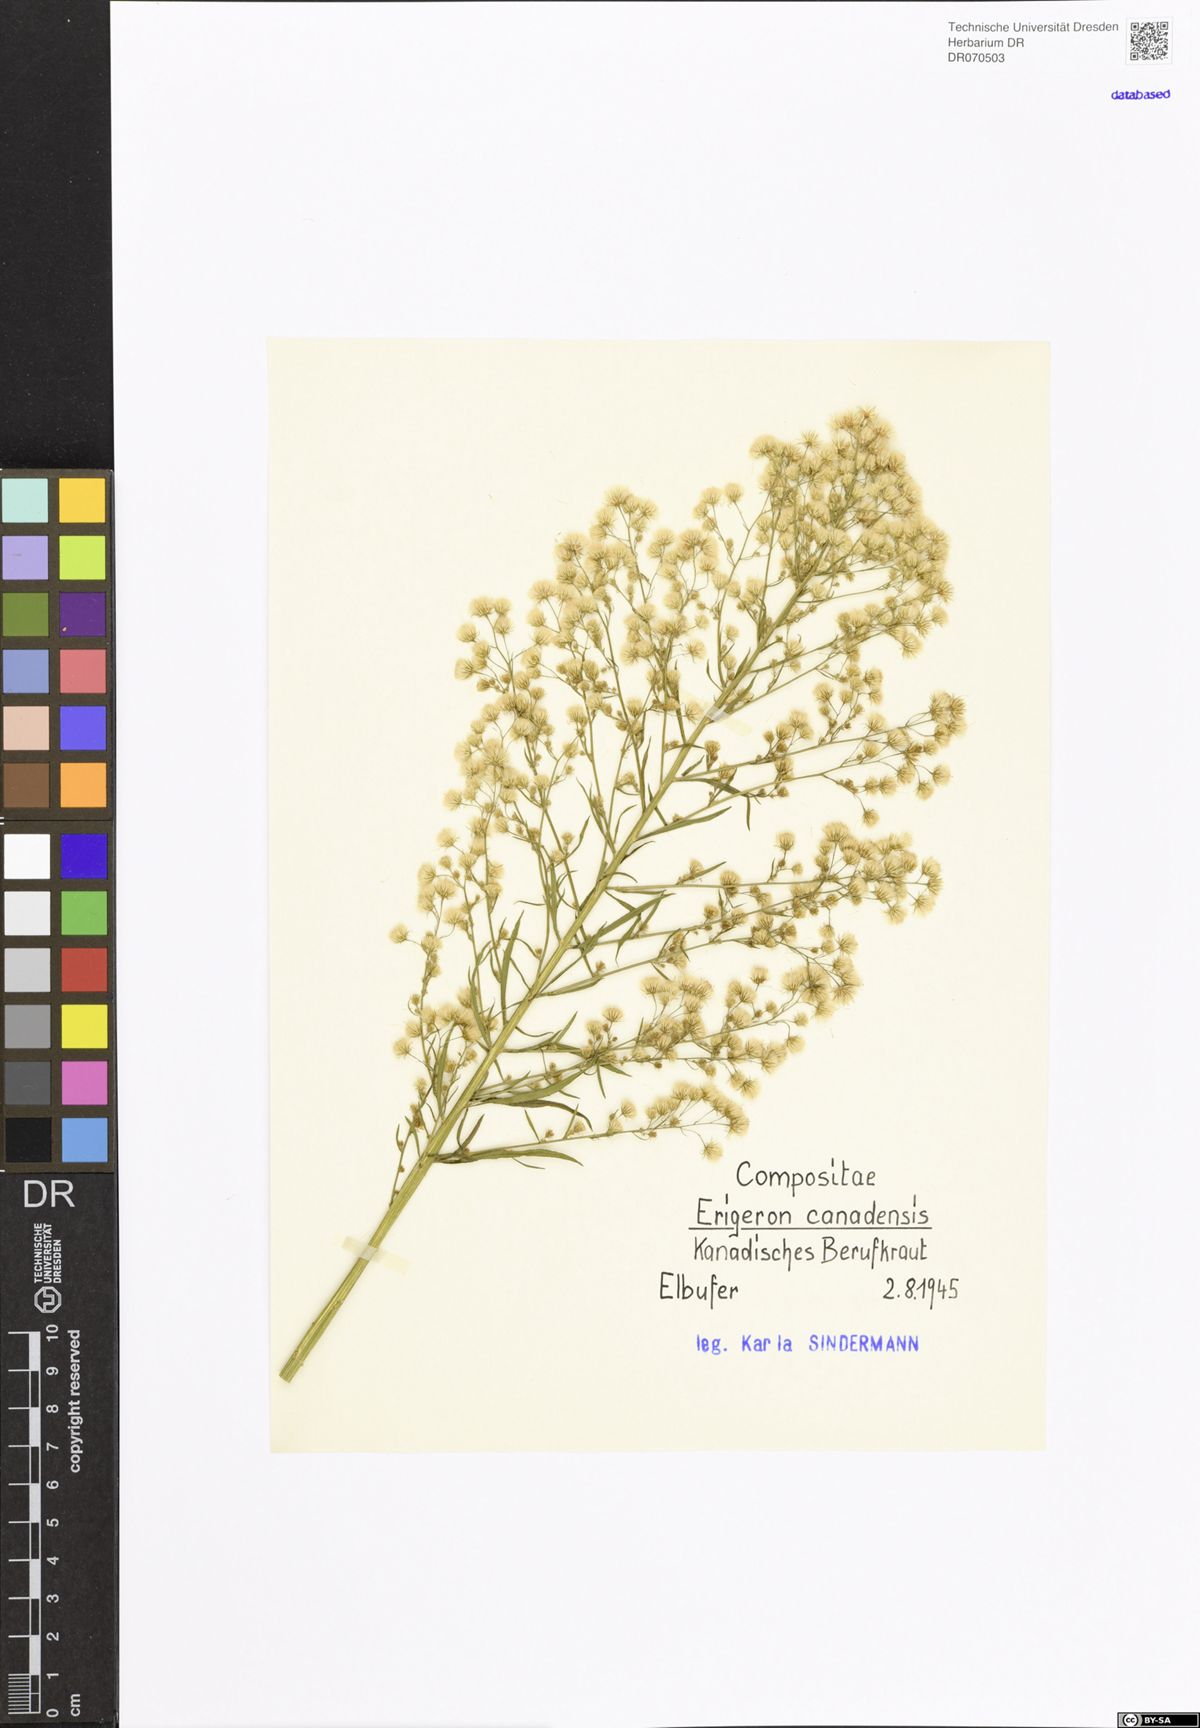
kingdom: Plantae
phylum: Tracheophyta
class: Magnoliopsida
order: Asterales
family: Asteraceae
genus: Erigeron
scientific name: Erigeron canadensis
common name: Canadian fleabane
